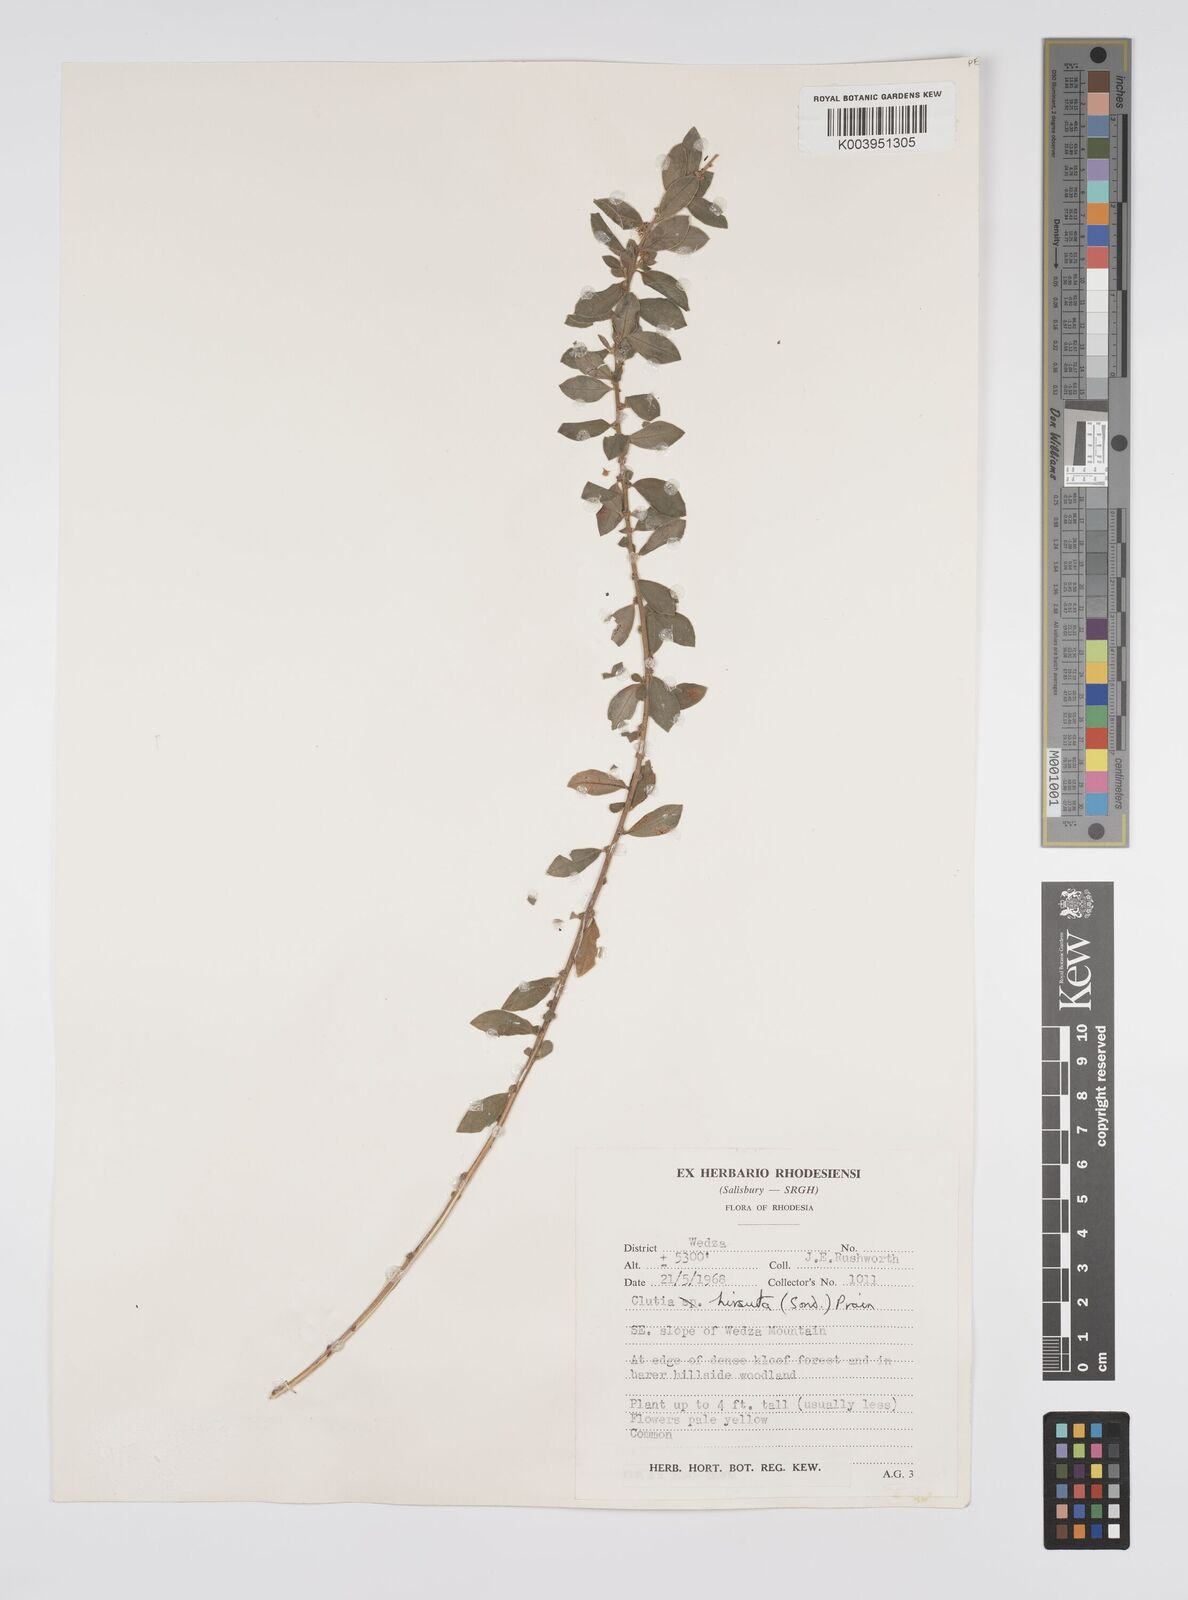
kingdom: Plantae
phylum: Tracheophyta
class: Magnoliopsida
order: Malpighiales
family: Peraceae
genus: Clutia
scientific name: Clutia hirsuta
